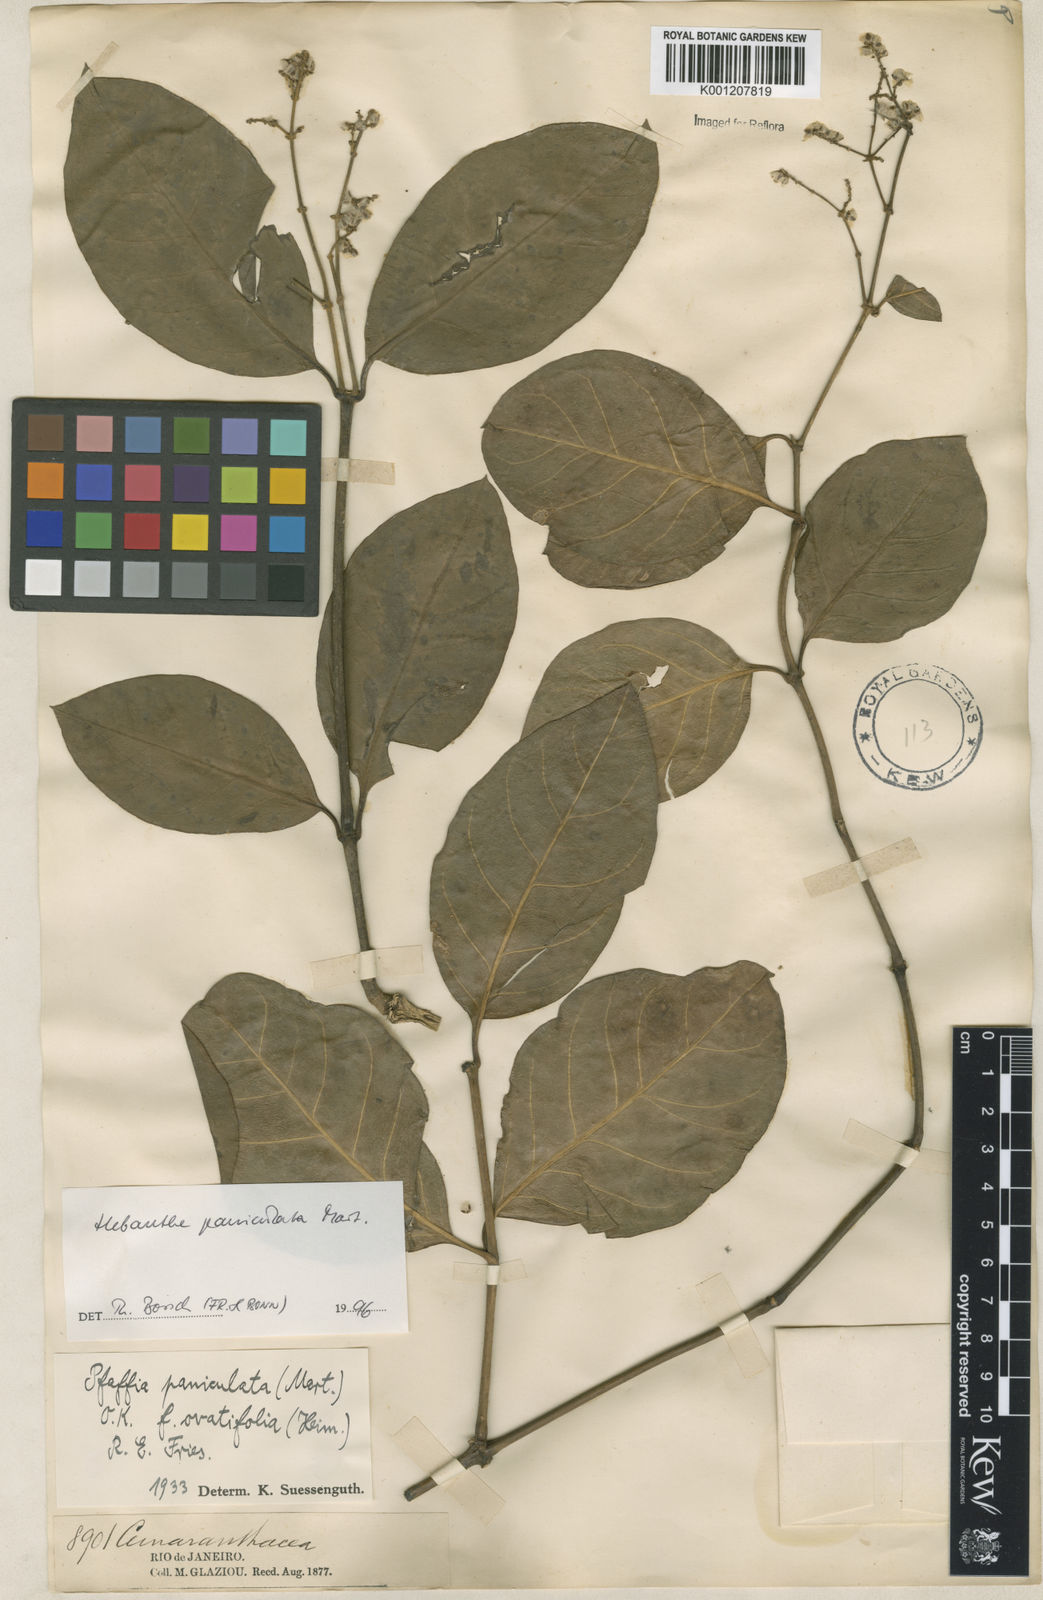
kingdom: Plantae
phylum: Tracheophyta
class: Magnoliopsida
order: Caryophyllales
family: Amaranthaceae
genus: Hebanthe
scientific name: Hebanthe erianthos
